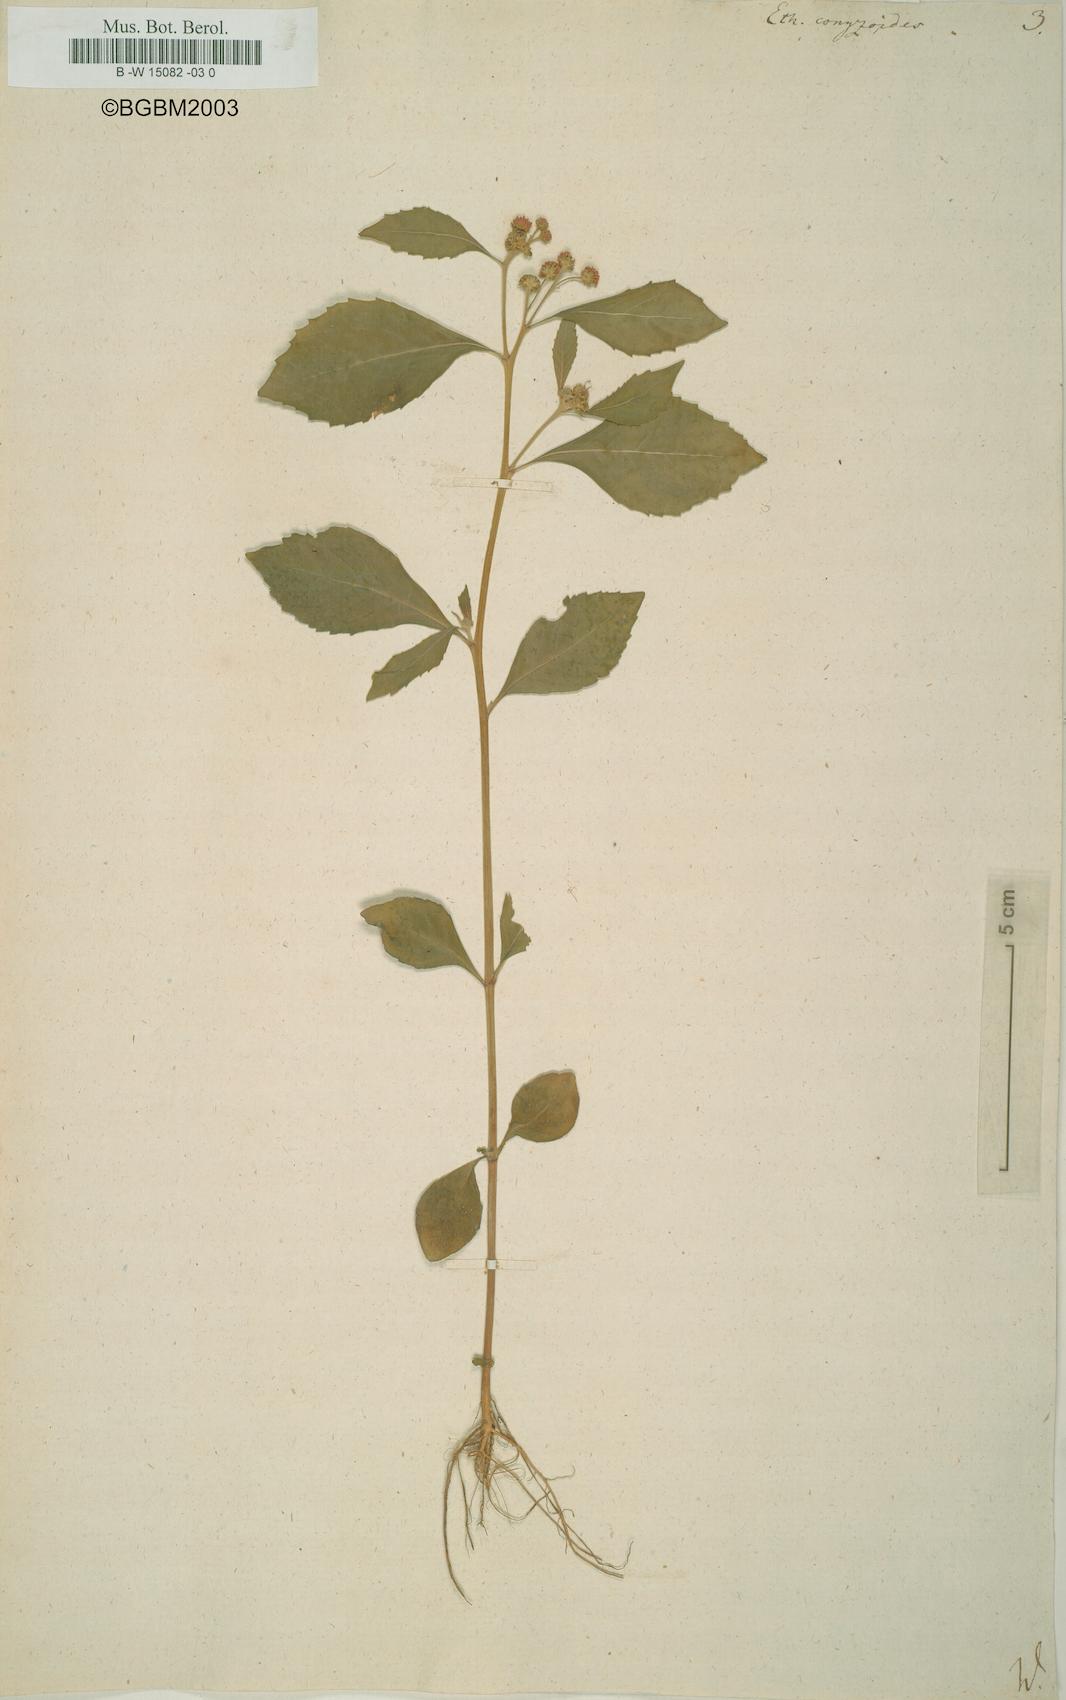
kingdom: Plantae
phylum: Tracheophyta
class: Magnoliopsida
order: Asterales
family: Asteraceae
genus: Ethulia
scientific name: Ethulia conyzoides
